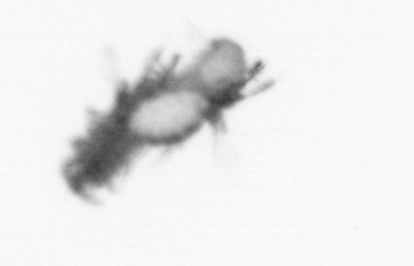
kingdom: Animalia
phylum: Annelida
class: Polychaeta
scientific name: Polychaeta
